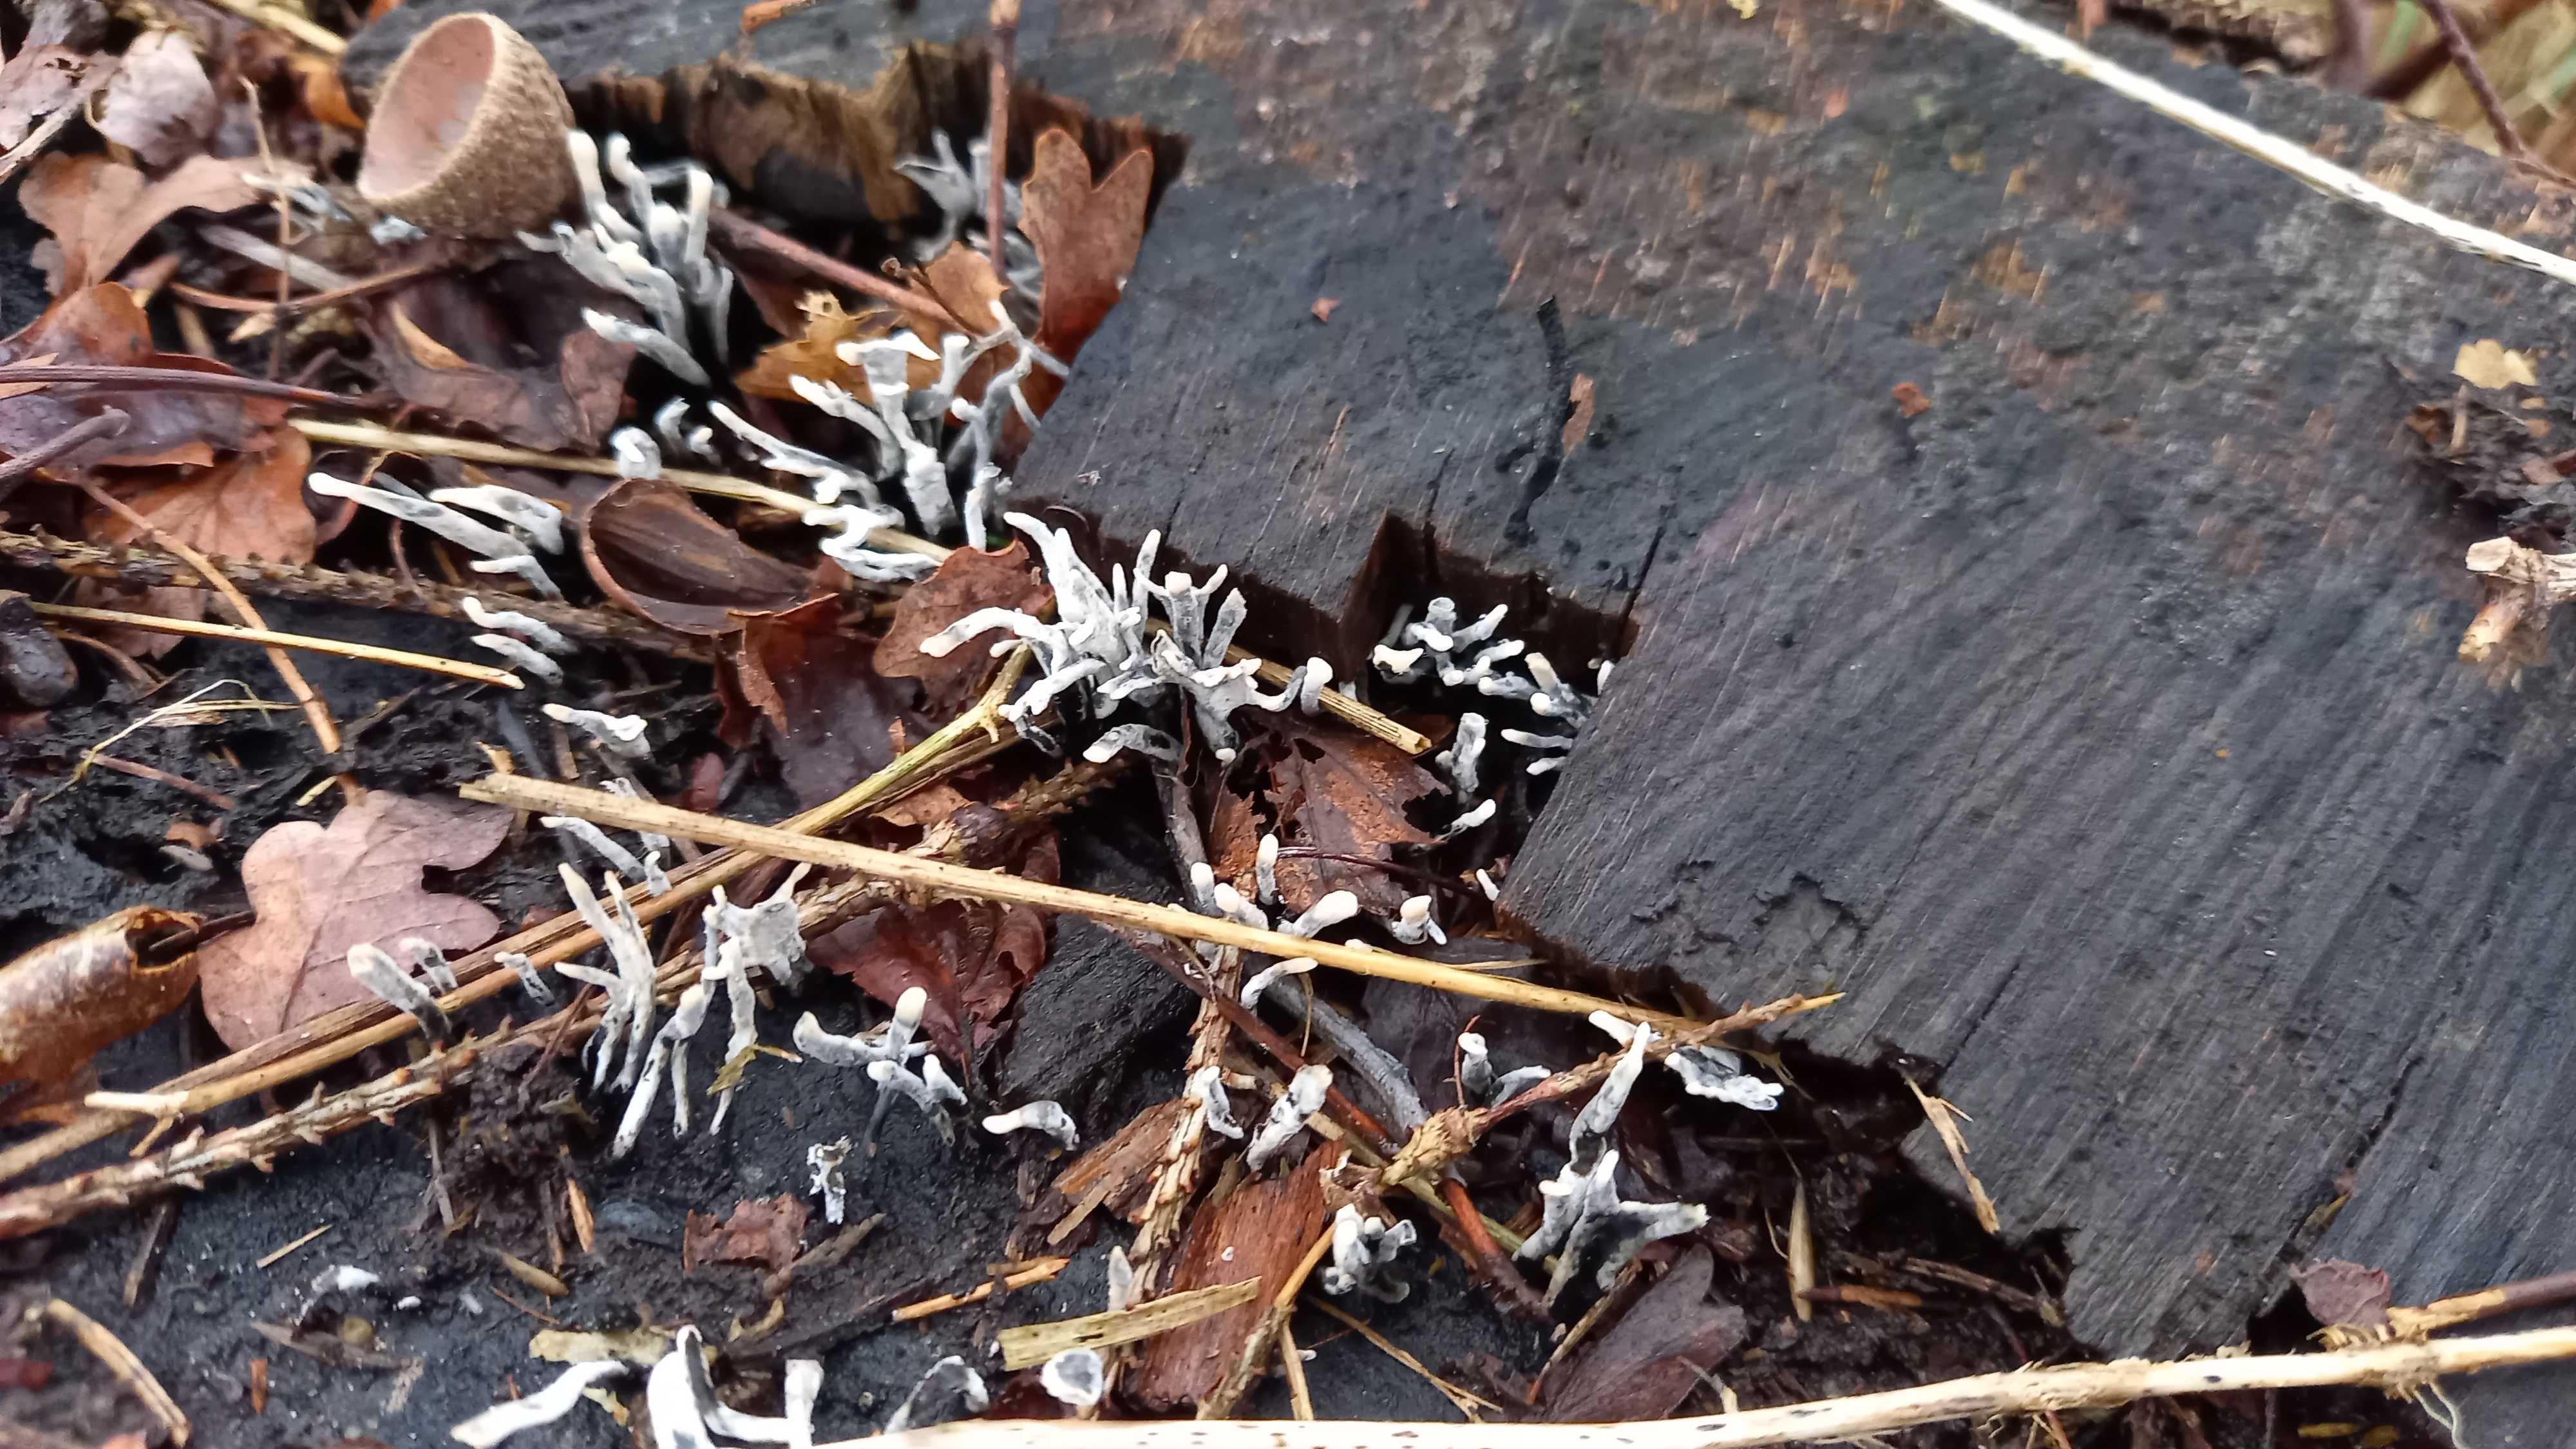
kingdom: Fungi
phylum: Ascomycota
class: Sordariomycetes
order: Xylariales
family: Xylariaceae
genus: Xylaria
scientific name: Xylaria hypoxylon
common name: grenet stødsvamp
